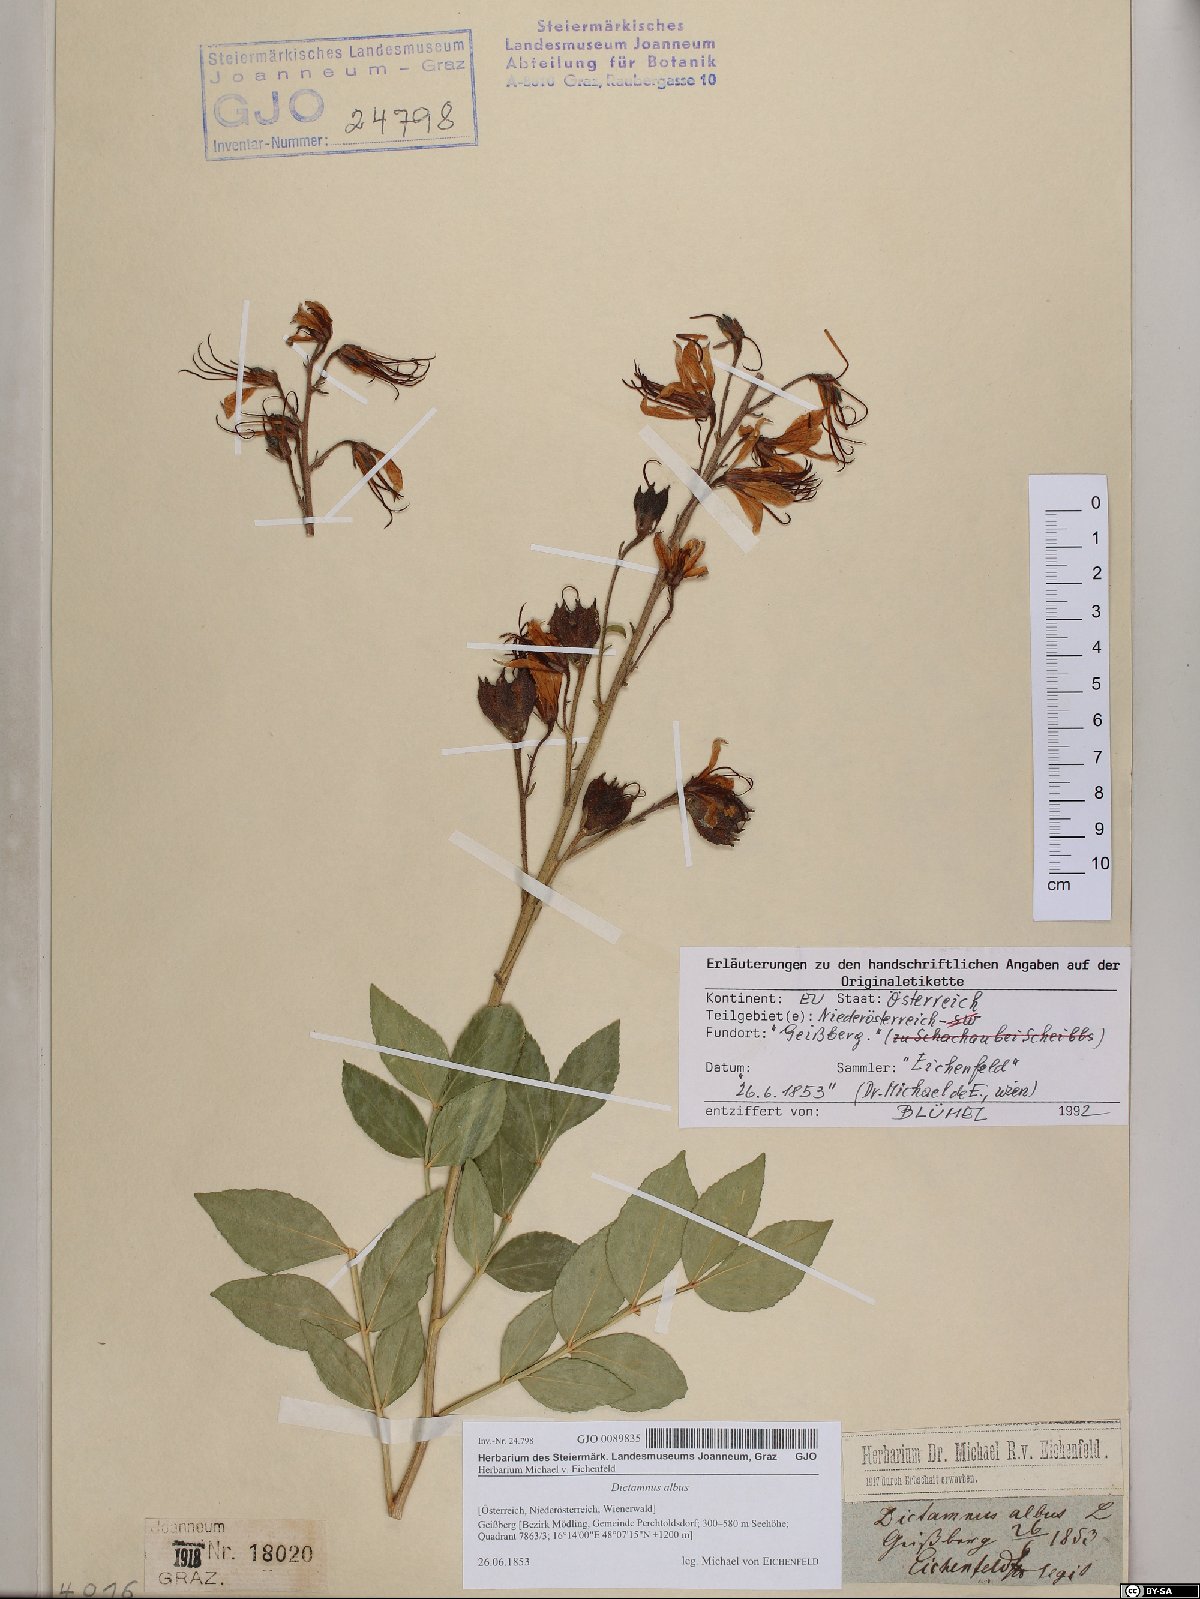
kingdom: Plantae
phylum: Tracheophyta
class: Magnoliopsida
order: Sapindales
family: Rutaceae
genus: Dictamnus
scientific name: Dictamnus albus
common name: Gasplant
